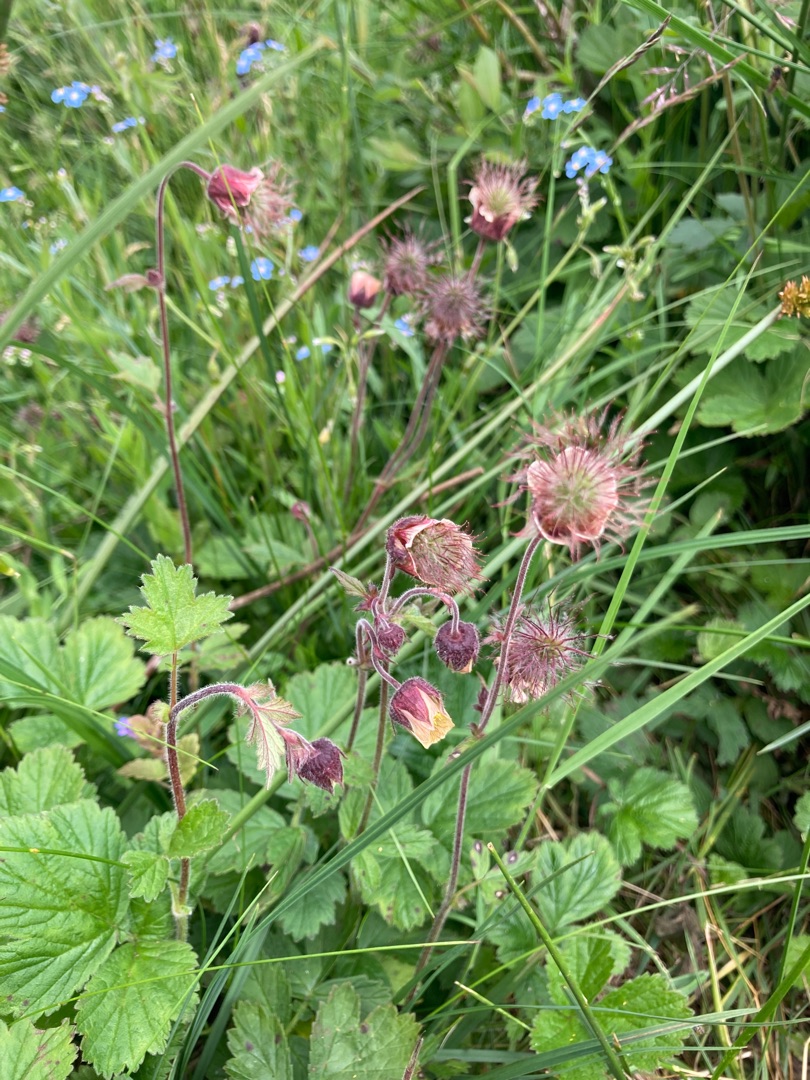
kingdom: Plantae
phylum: Tracheophyta
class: Magnoliopsida
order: Rosales
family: Rosaceae
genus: Geum
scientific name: Geum rivale
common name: Eng-nellikerod
